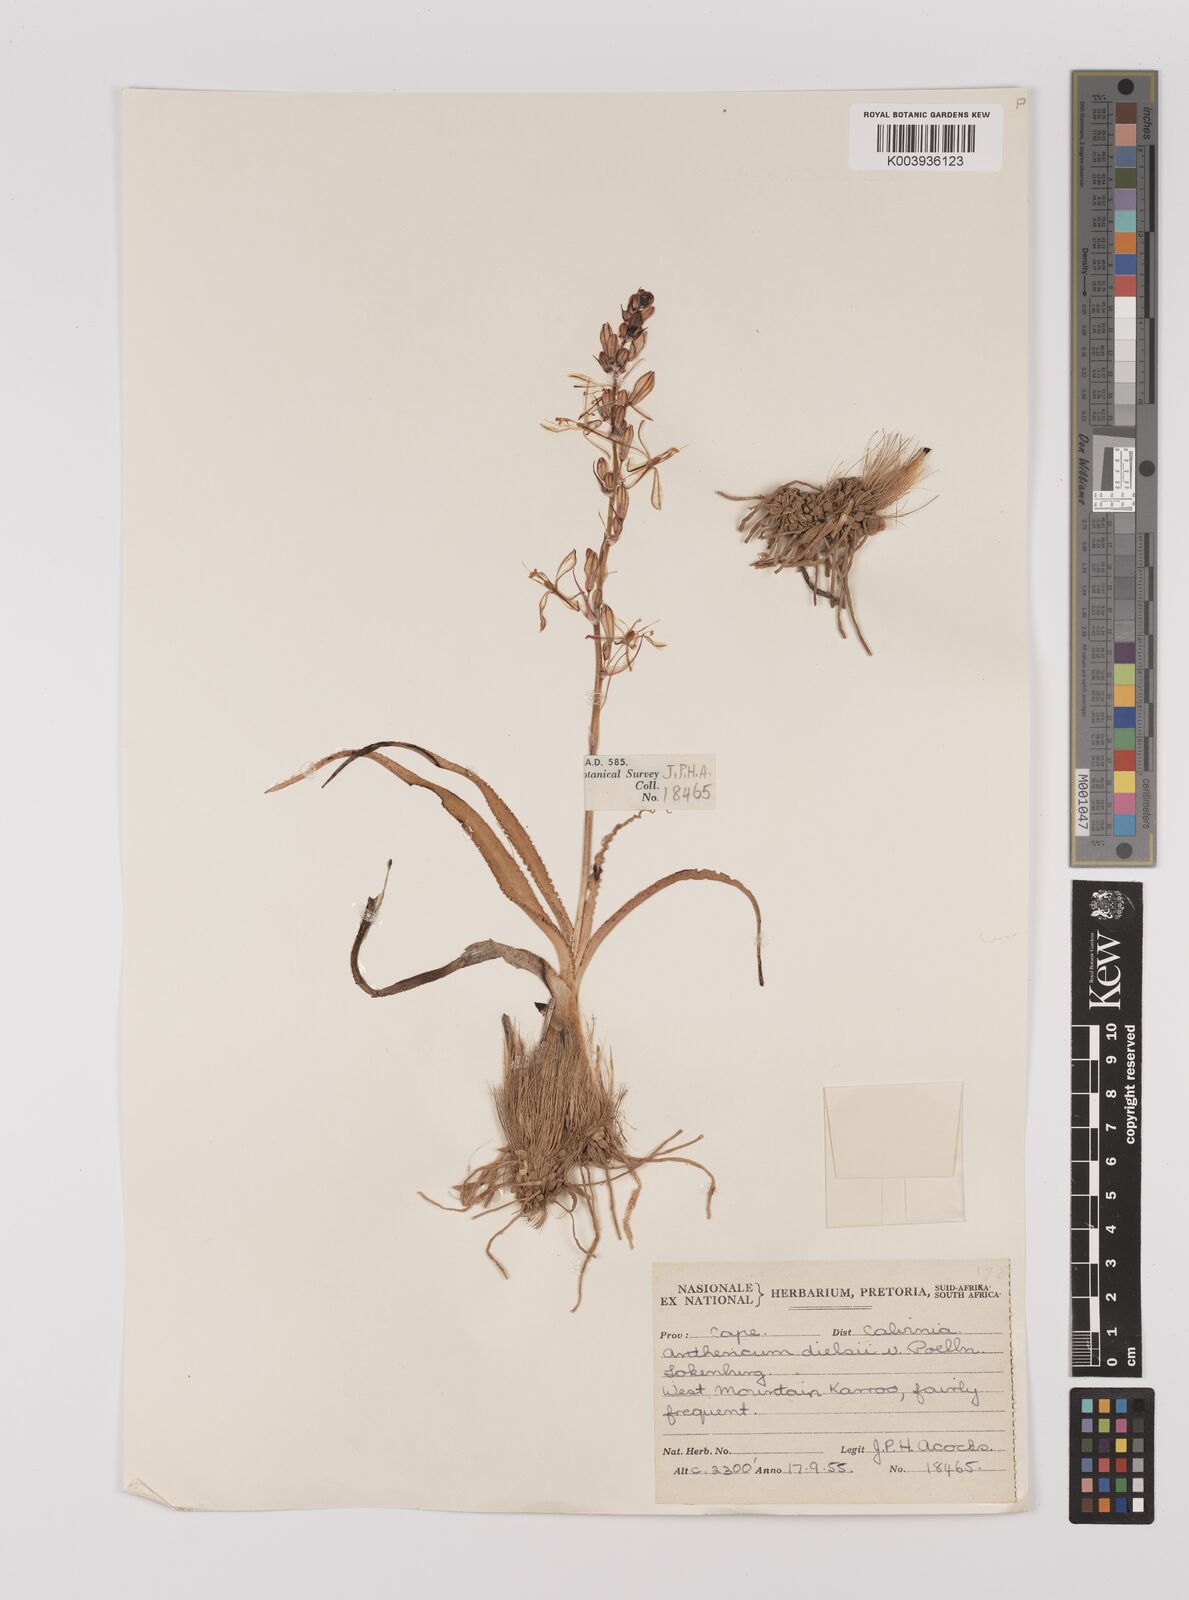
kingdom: Plantae
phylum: Tracheophyta
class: Liliopsida
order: Asparagales
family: Asparagaceae
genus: Chlorophytum
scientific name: Chlorophytum graminifolium
